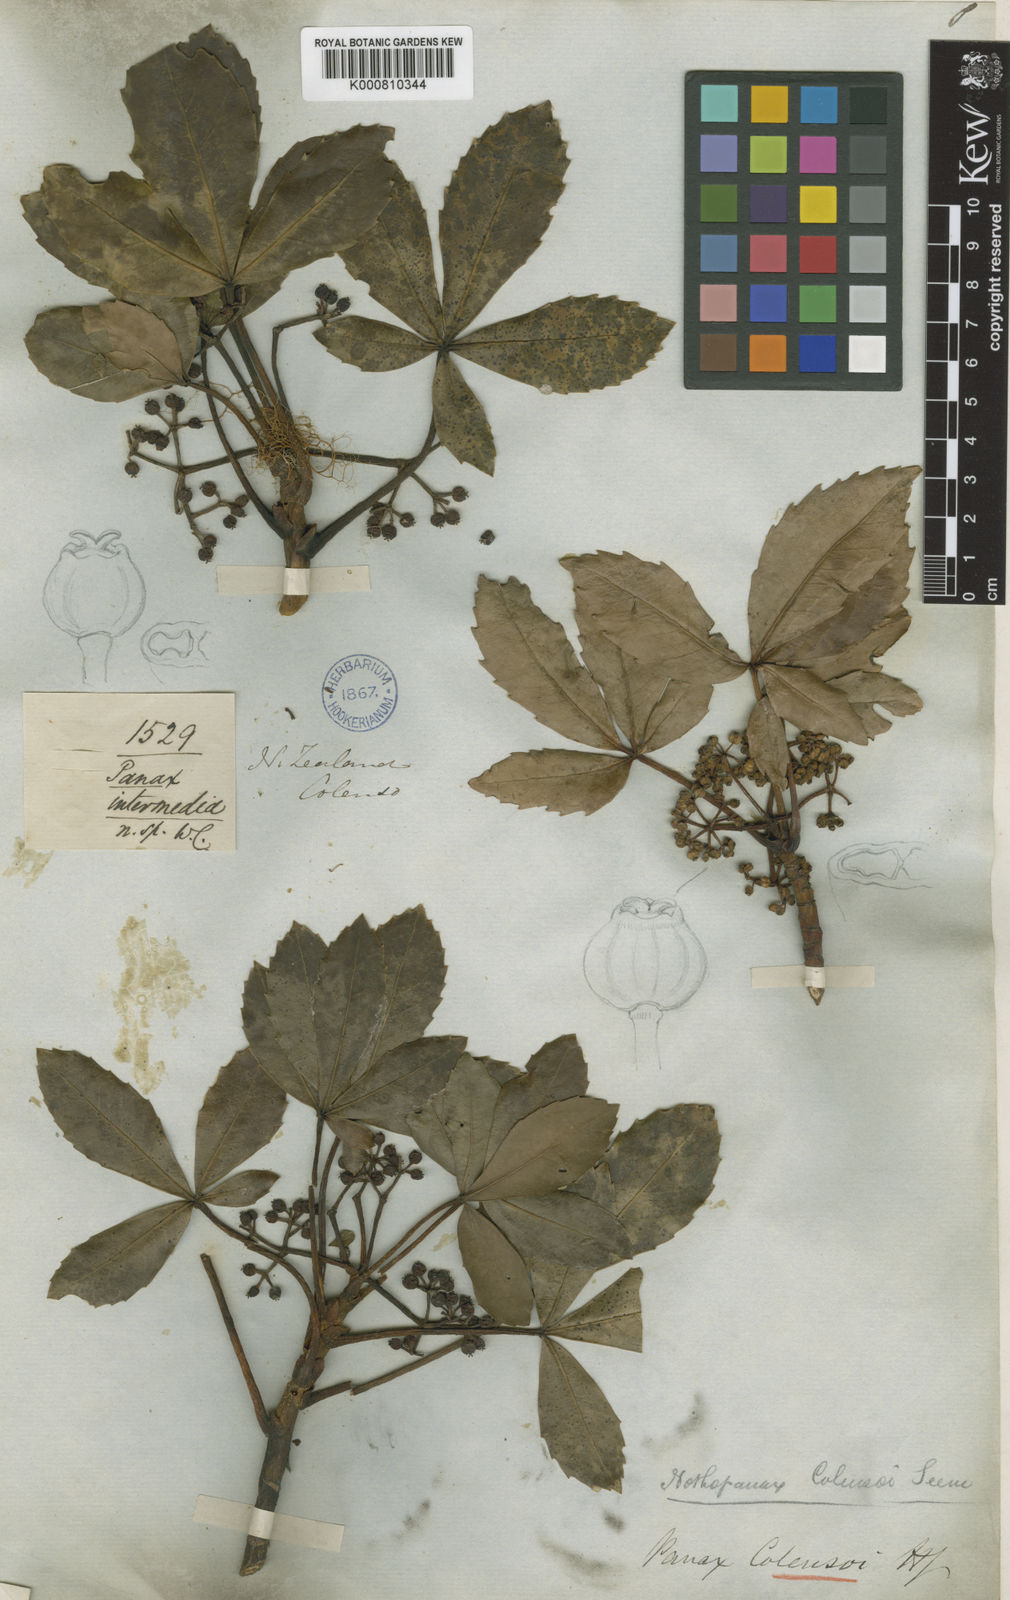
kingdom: Plantae
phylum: Tracheophyta
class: Magnoliopsida
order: Apiales
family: Araliaceae
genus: Neopanax
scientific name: Neopanax colensoi
